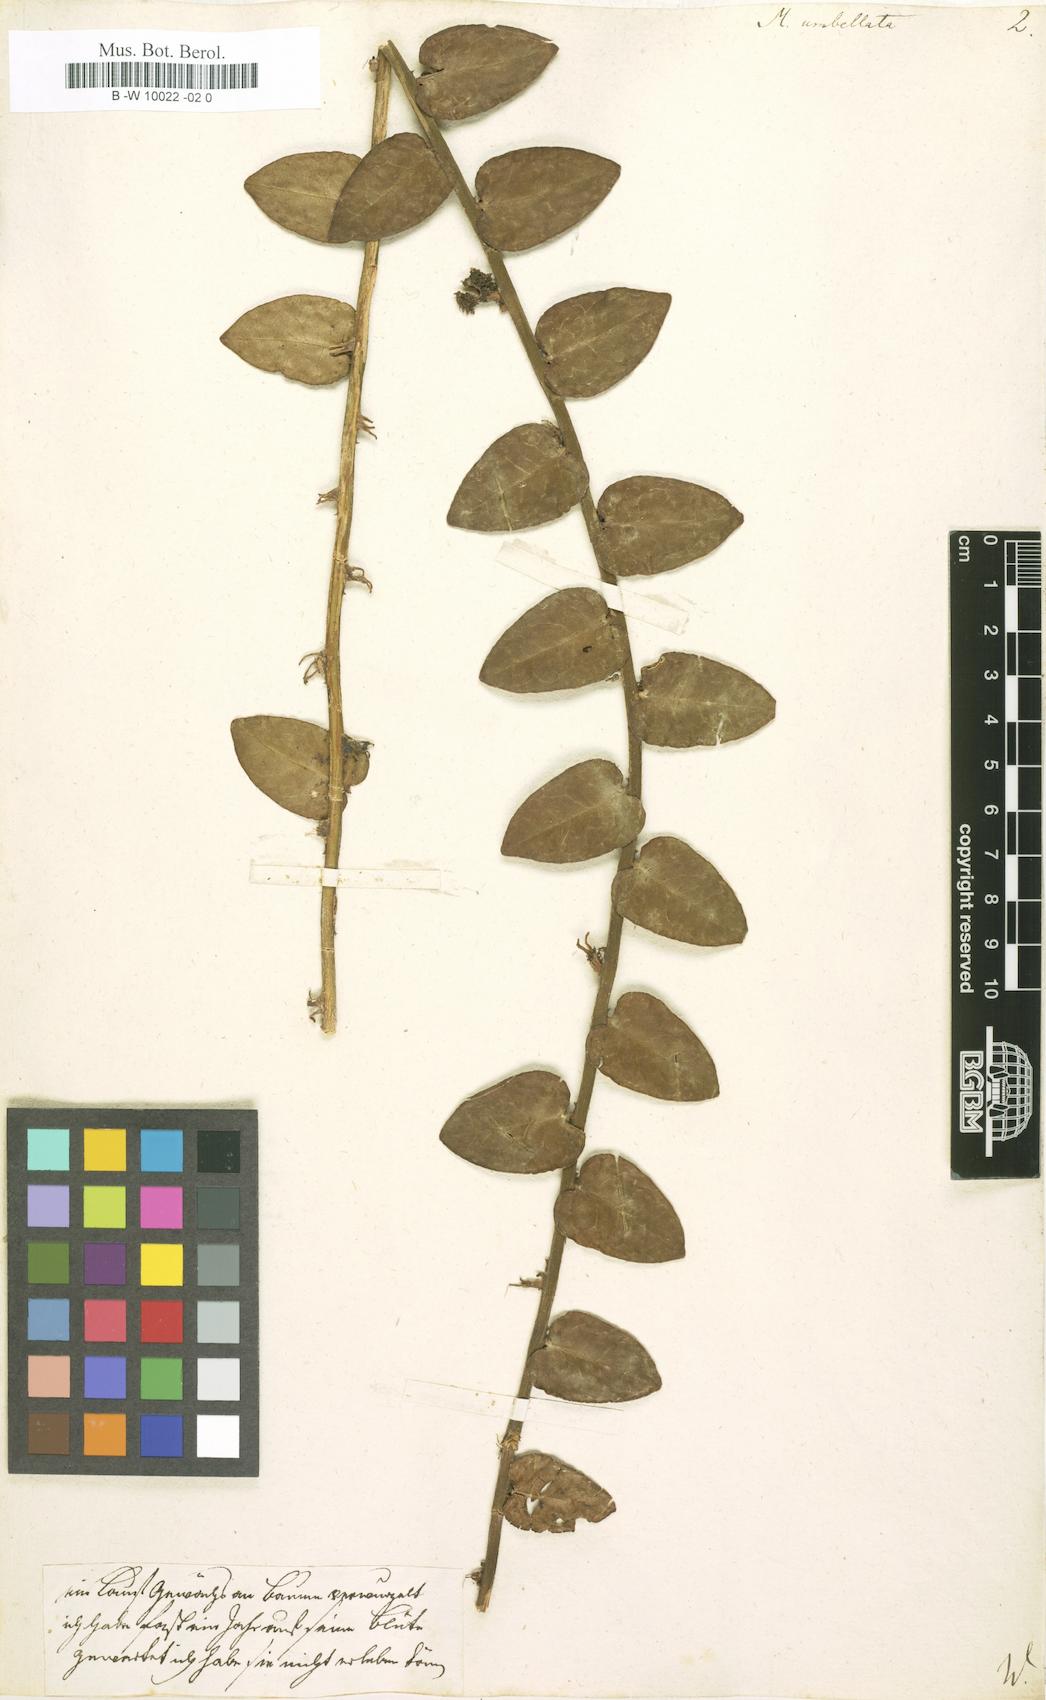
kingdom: Plantae
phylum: Tracheophyta
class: Magnoliopsida
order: Ericales
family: Marcgraviaceae
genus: Marcgravia
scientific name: Marcgravia umbellata
